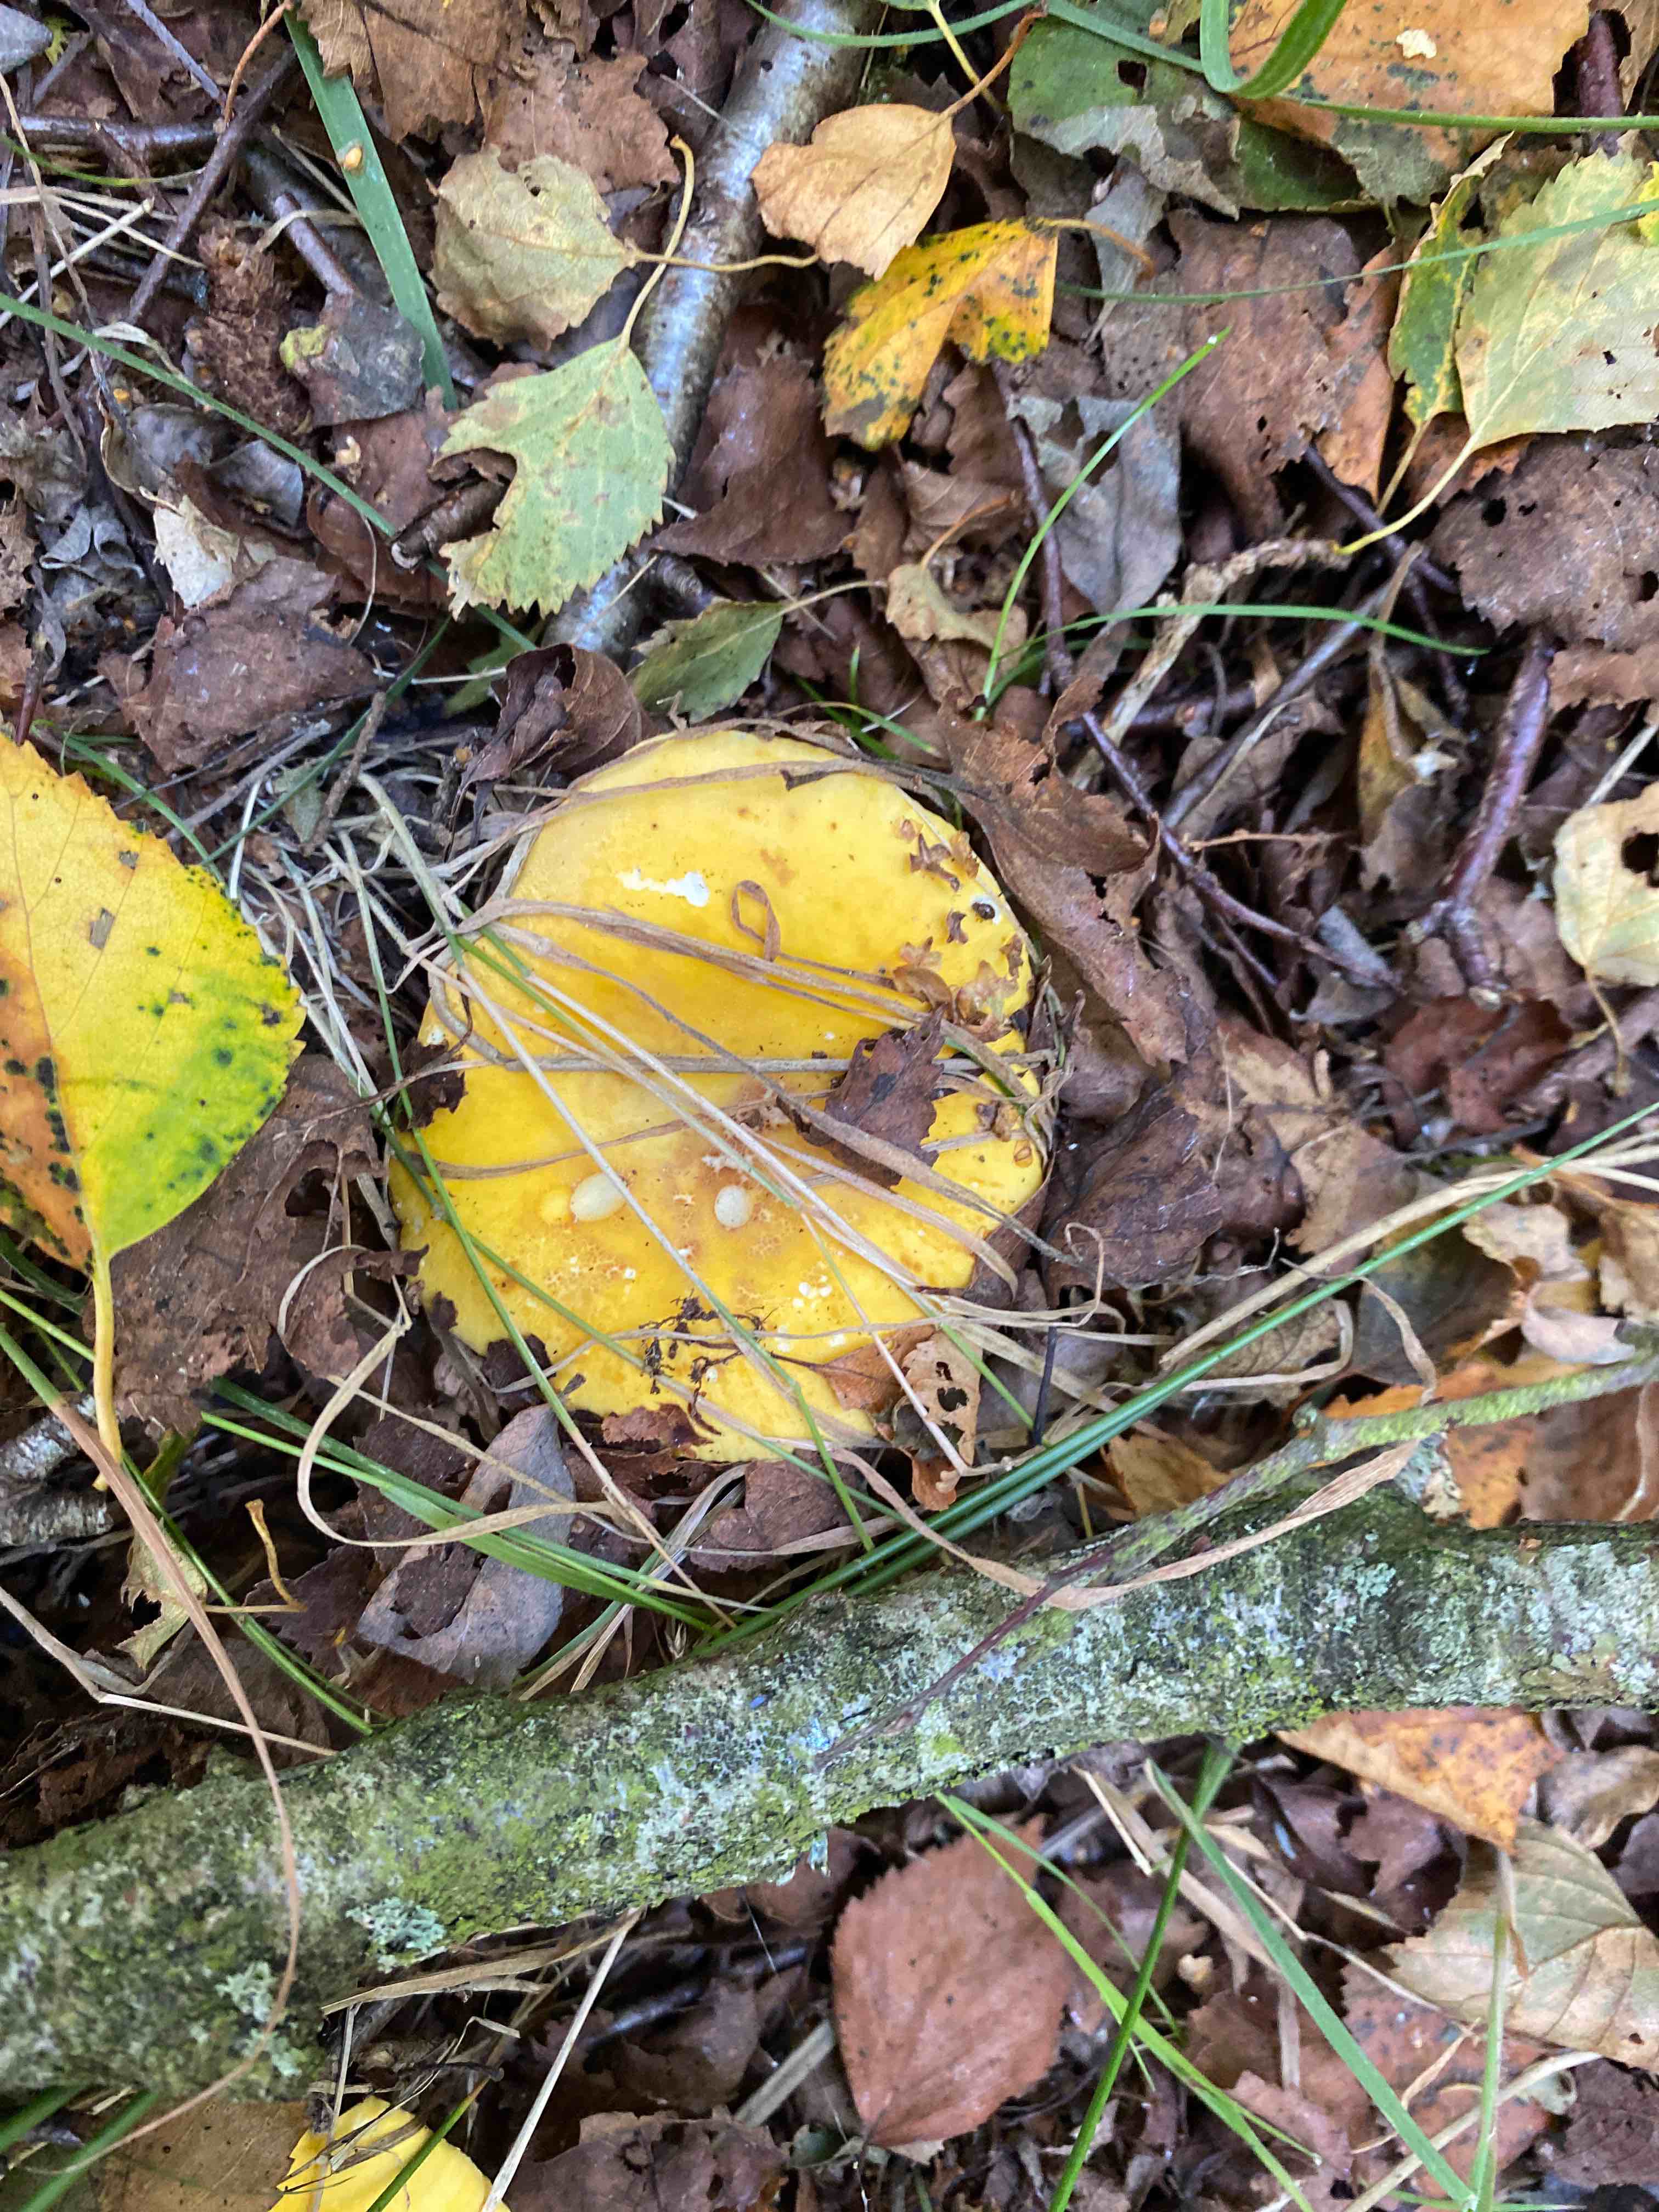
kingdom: Fungi
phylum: Basidiomycota
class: Agaricomycetes
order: Russulales
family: Russulaceae
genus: Russula
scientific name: Russula claroflava
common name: birke-skørhat
